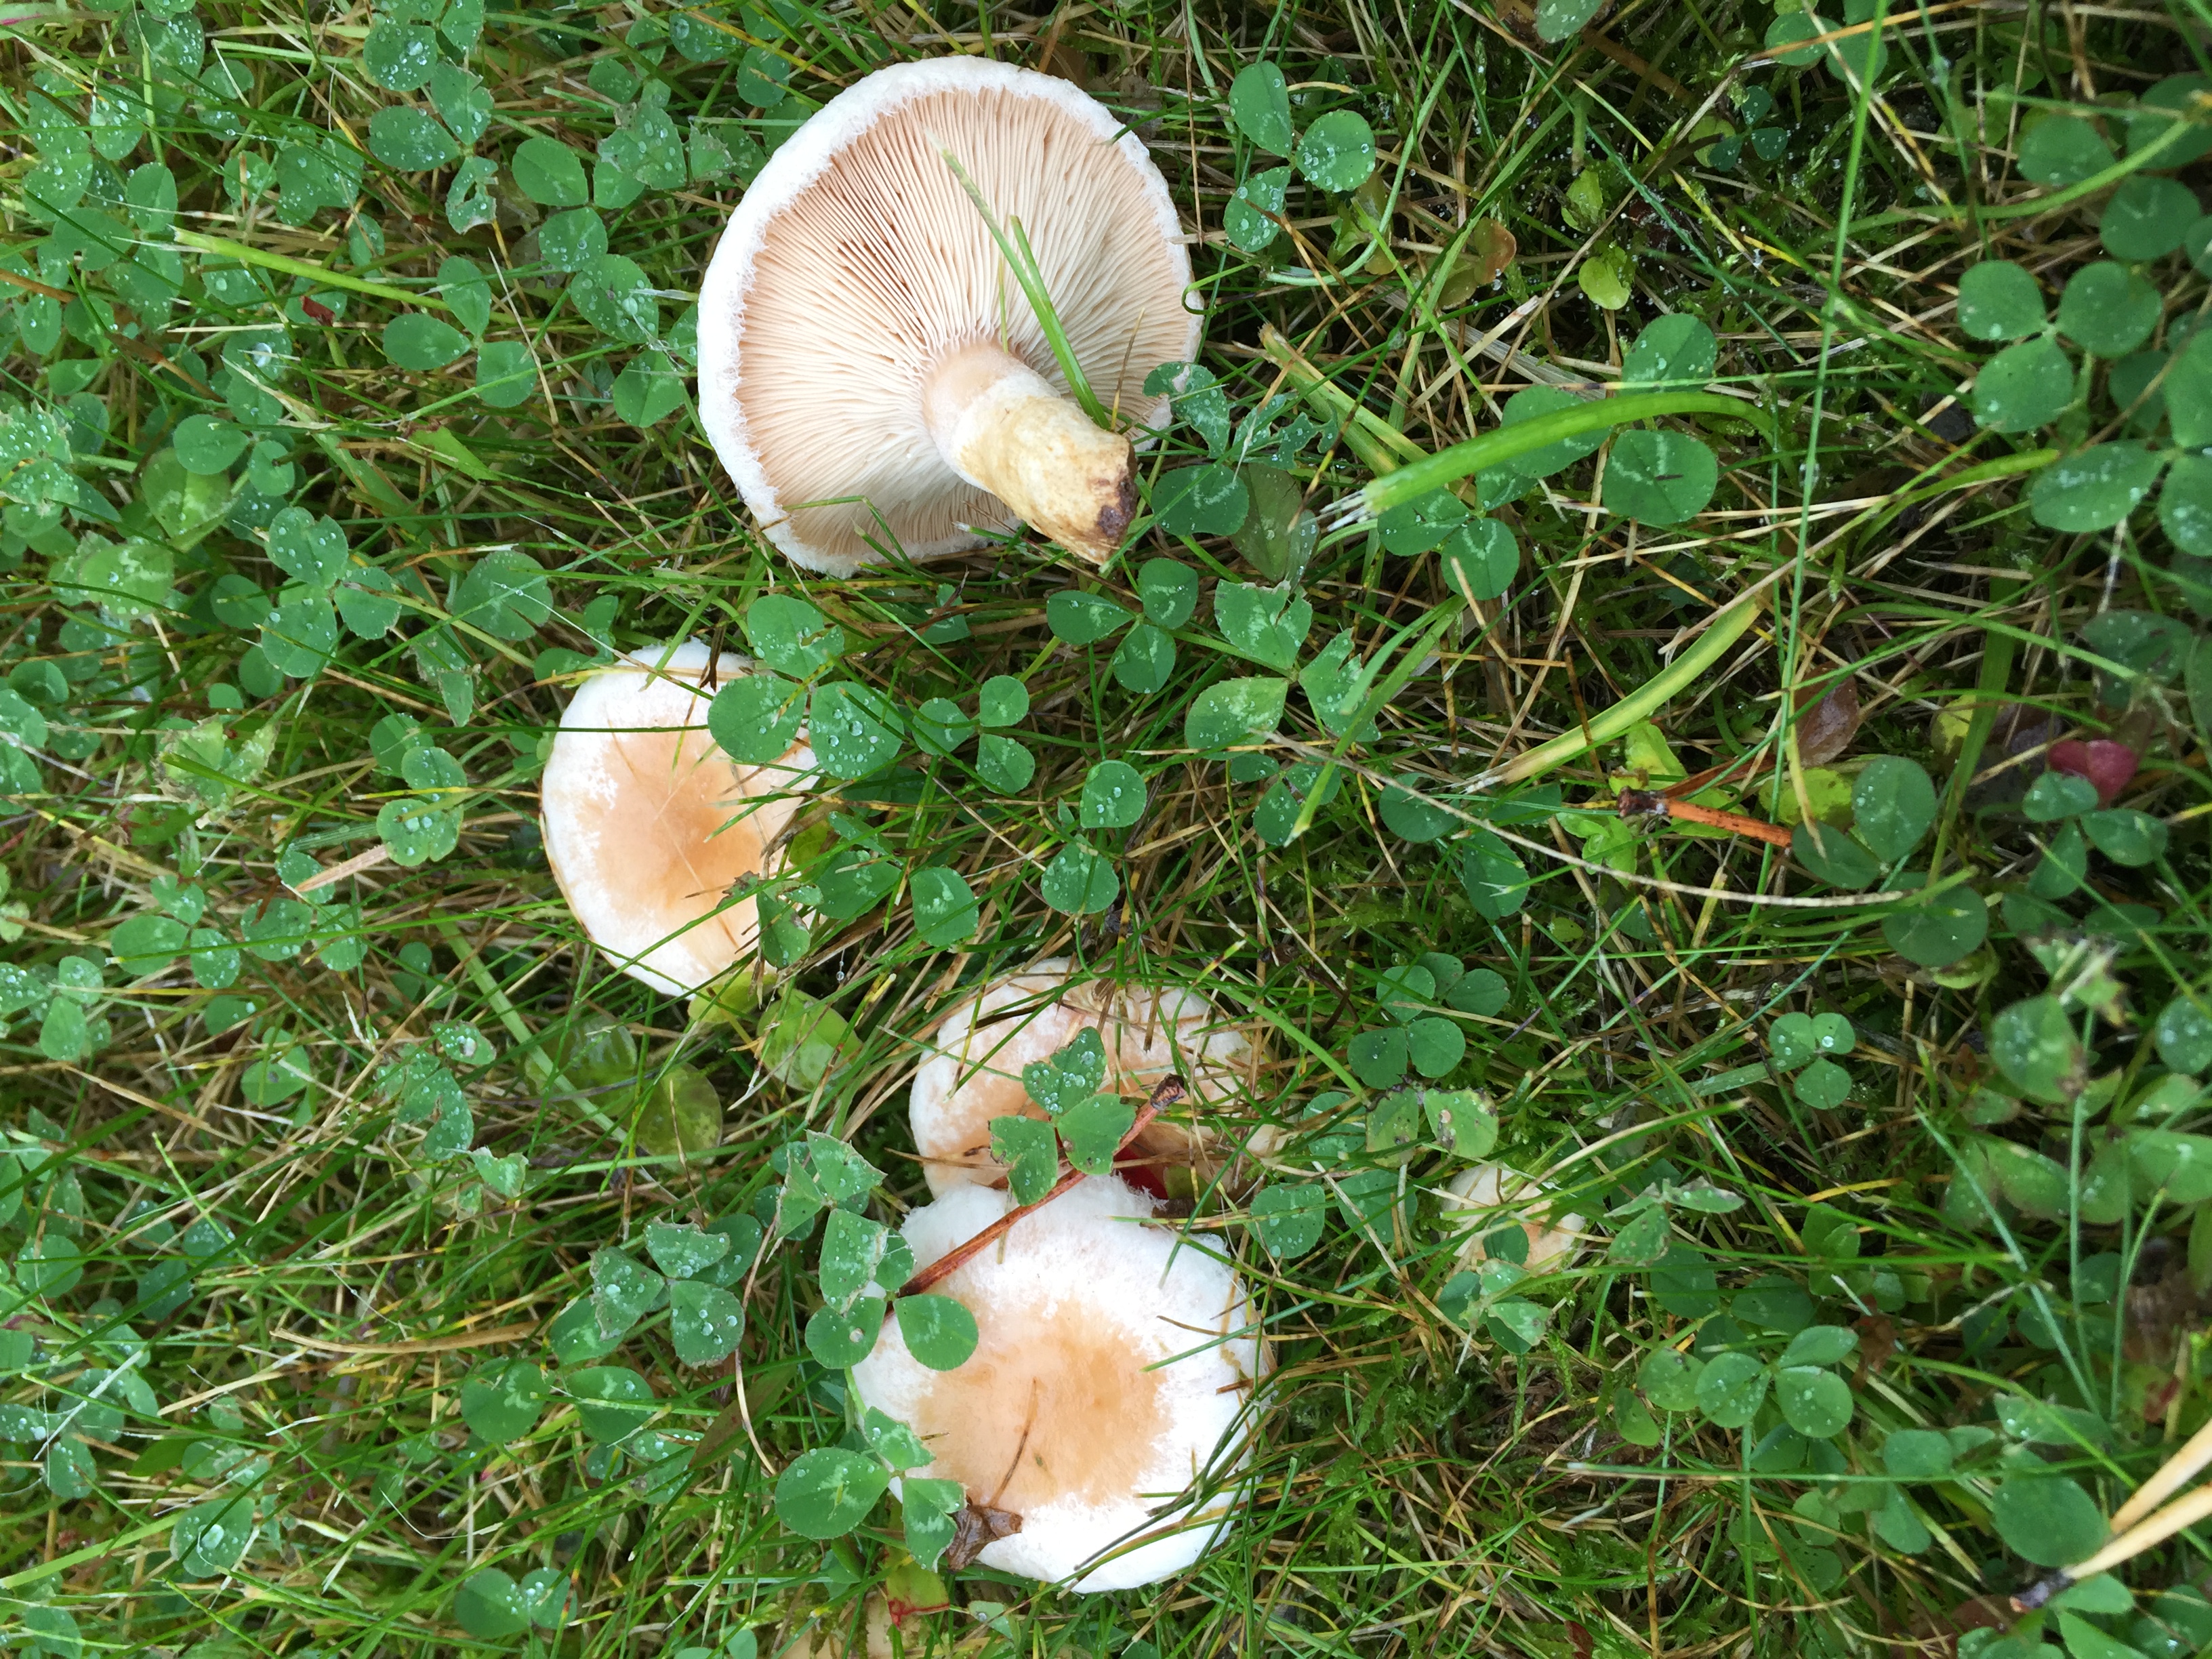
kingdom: Fungi
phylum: Basidiomycota
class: Agaricomycetes
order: Russulales
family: Russulaceae
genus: Lactarius
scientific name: Lactarius pubescens
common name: Bearded milkcap
